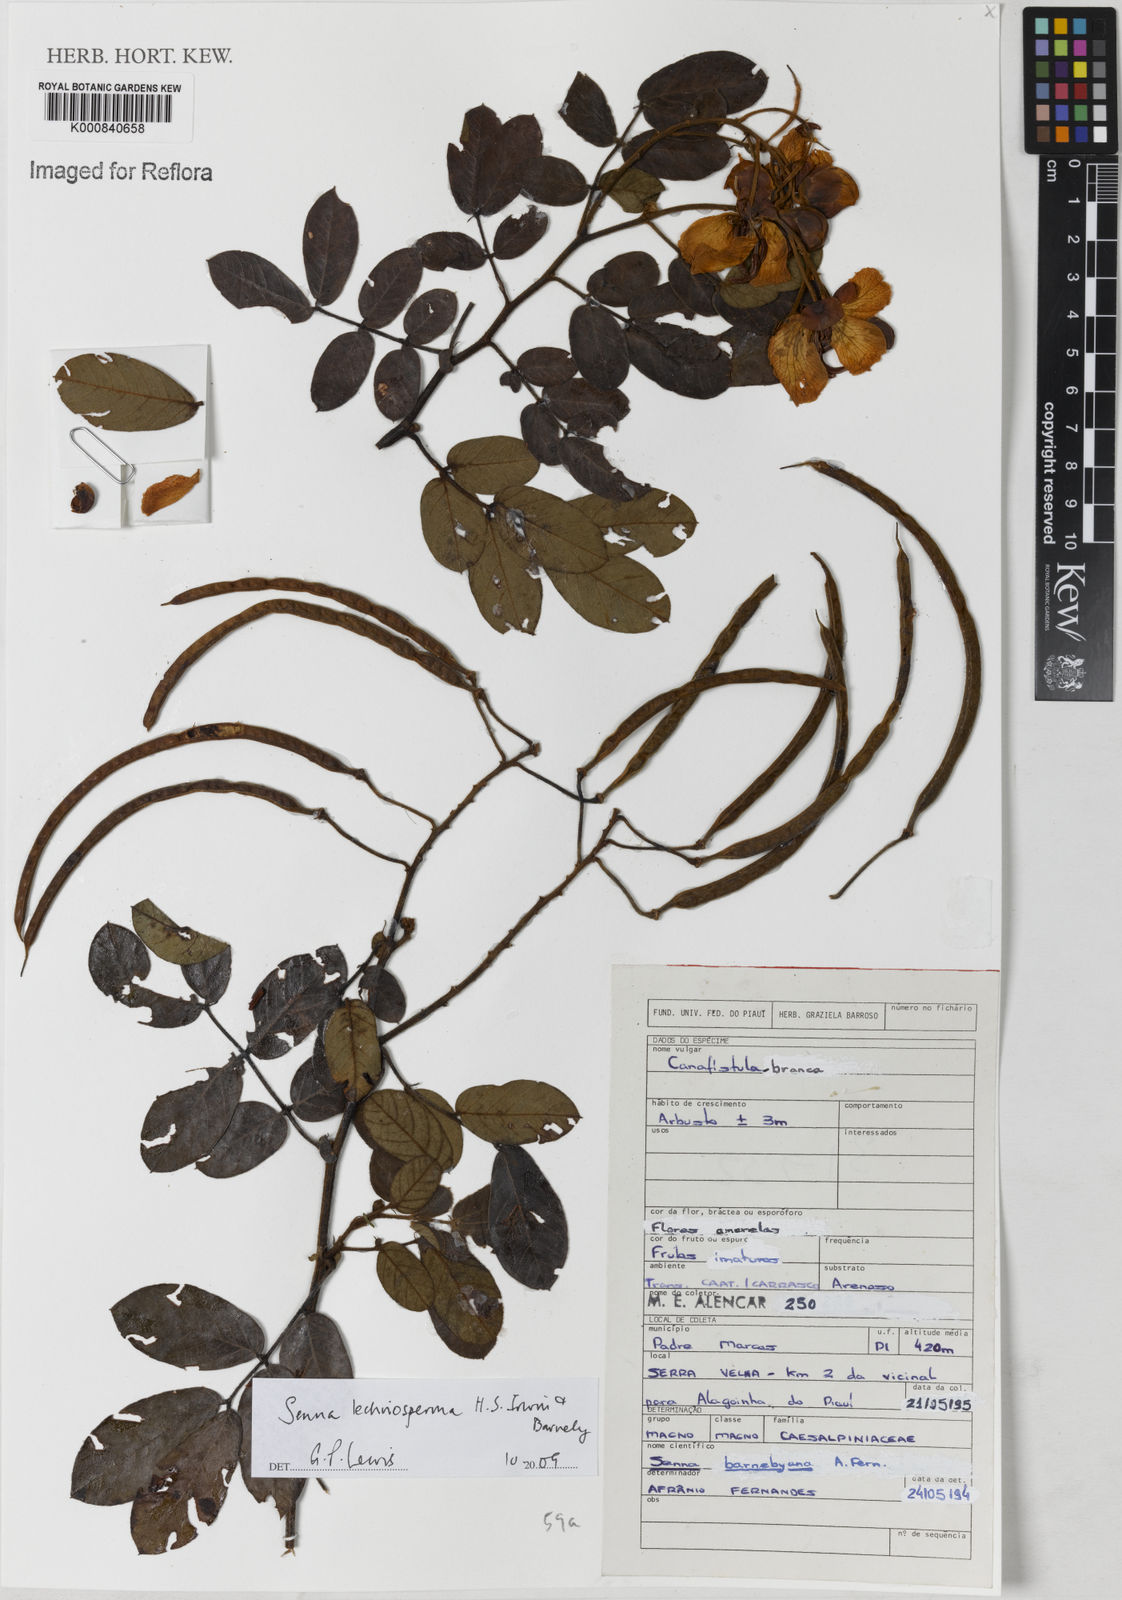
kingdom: Plantae
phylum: Tracheophyta
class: Magnoliopsida
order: Fabales
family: Fabaceae
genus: Senna
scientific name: Senna lechriosperma
